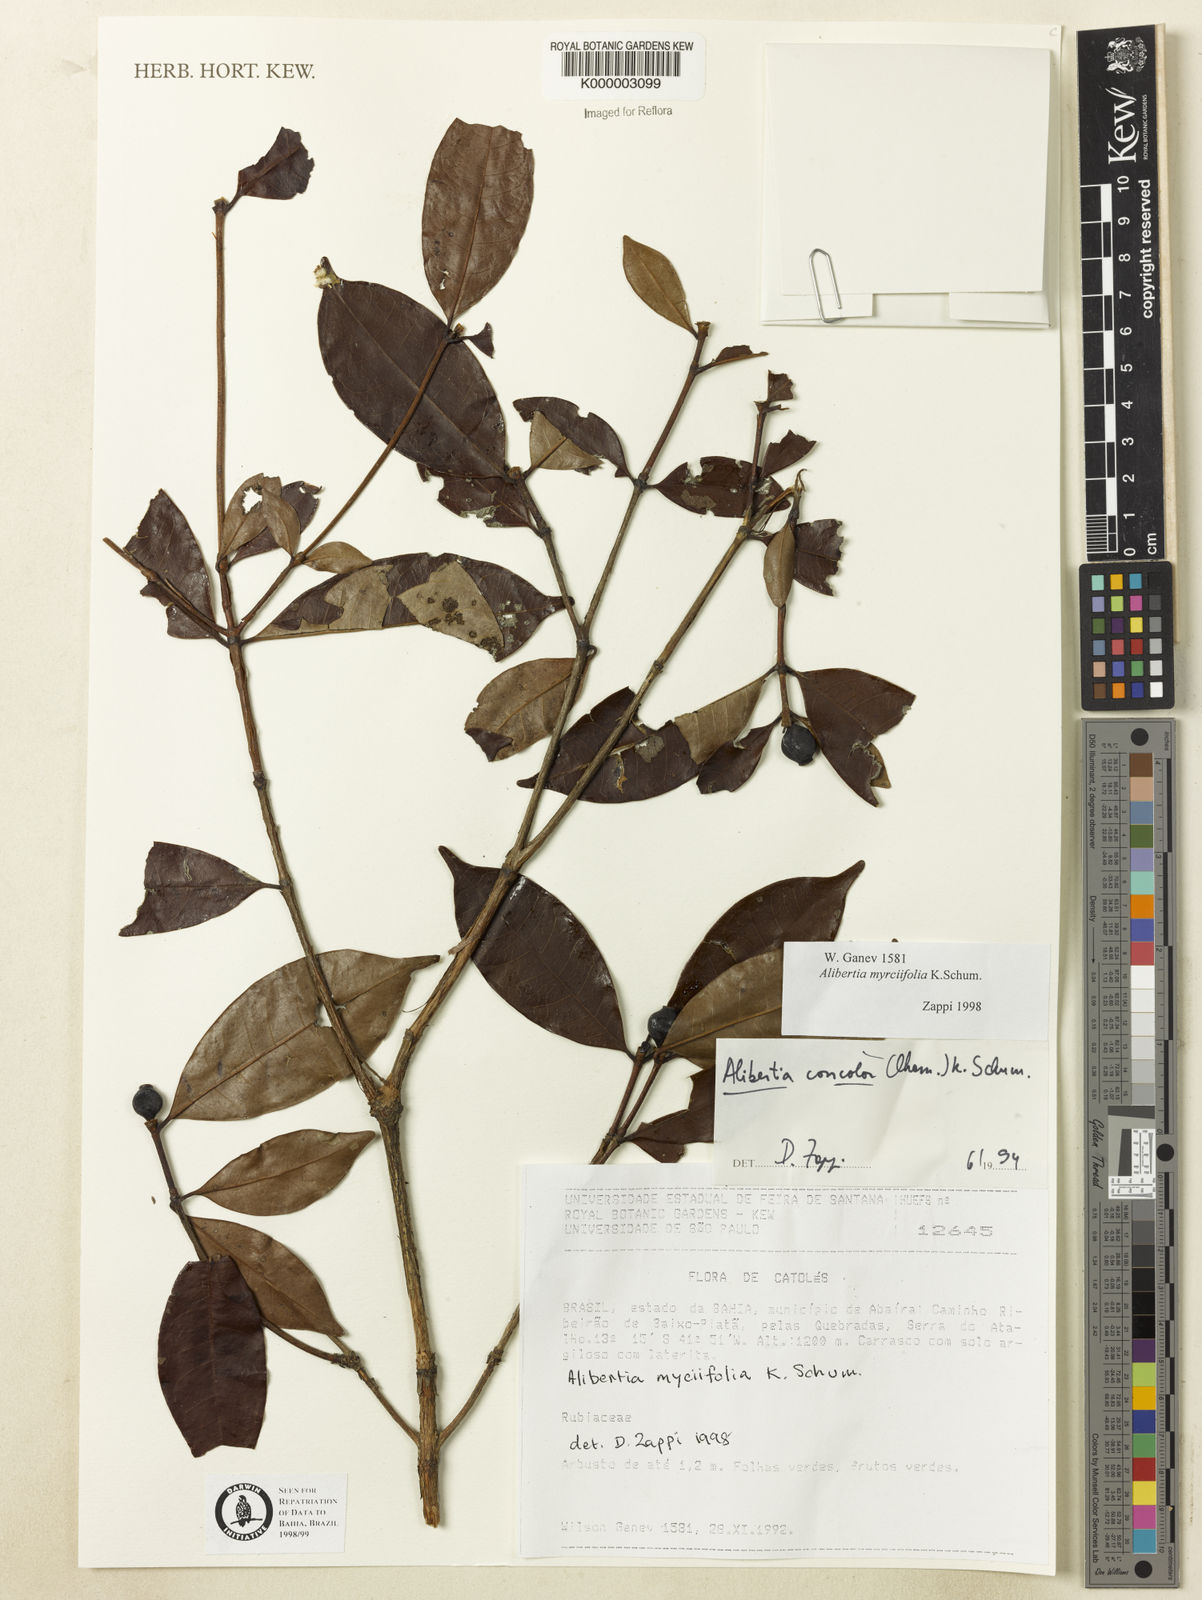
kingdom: Plantae
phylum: Tracheophyta
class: Magnoliopsida
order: Gentianales
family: Rubiaceae
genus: Cordiera
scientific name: Cordiera myrciifolia
